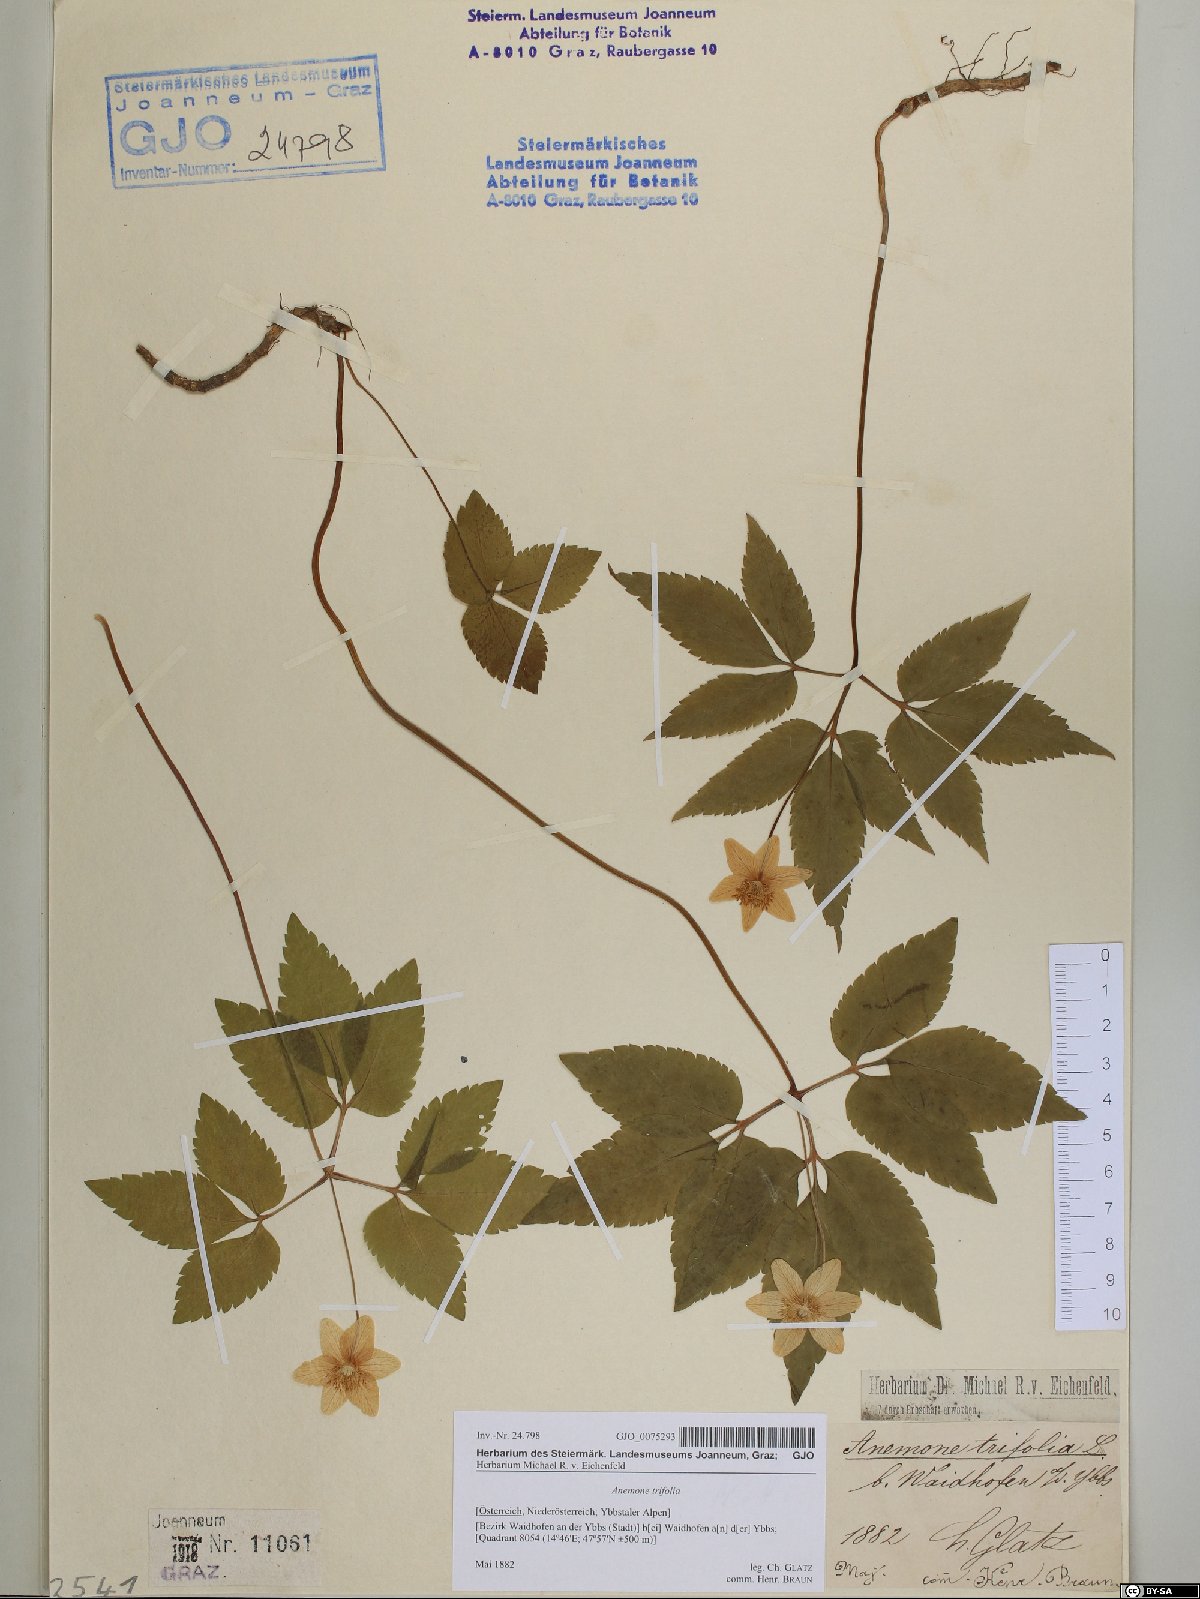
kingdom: Plantae
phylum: Tracheophyta
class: Magnoliopsida
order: Ranunculales
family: Ranunculaceae
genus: Anemone
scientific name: Anemone trifolia
